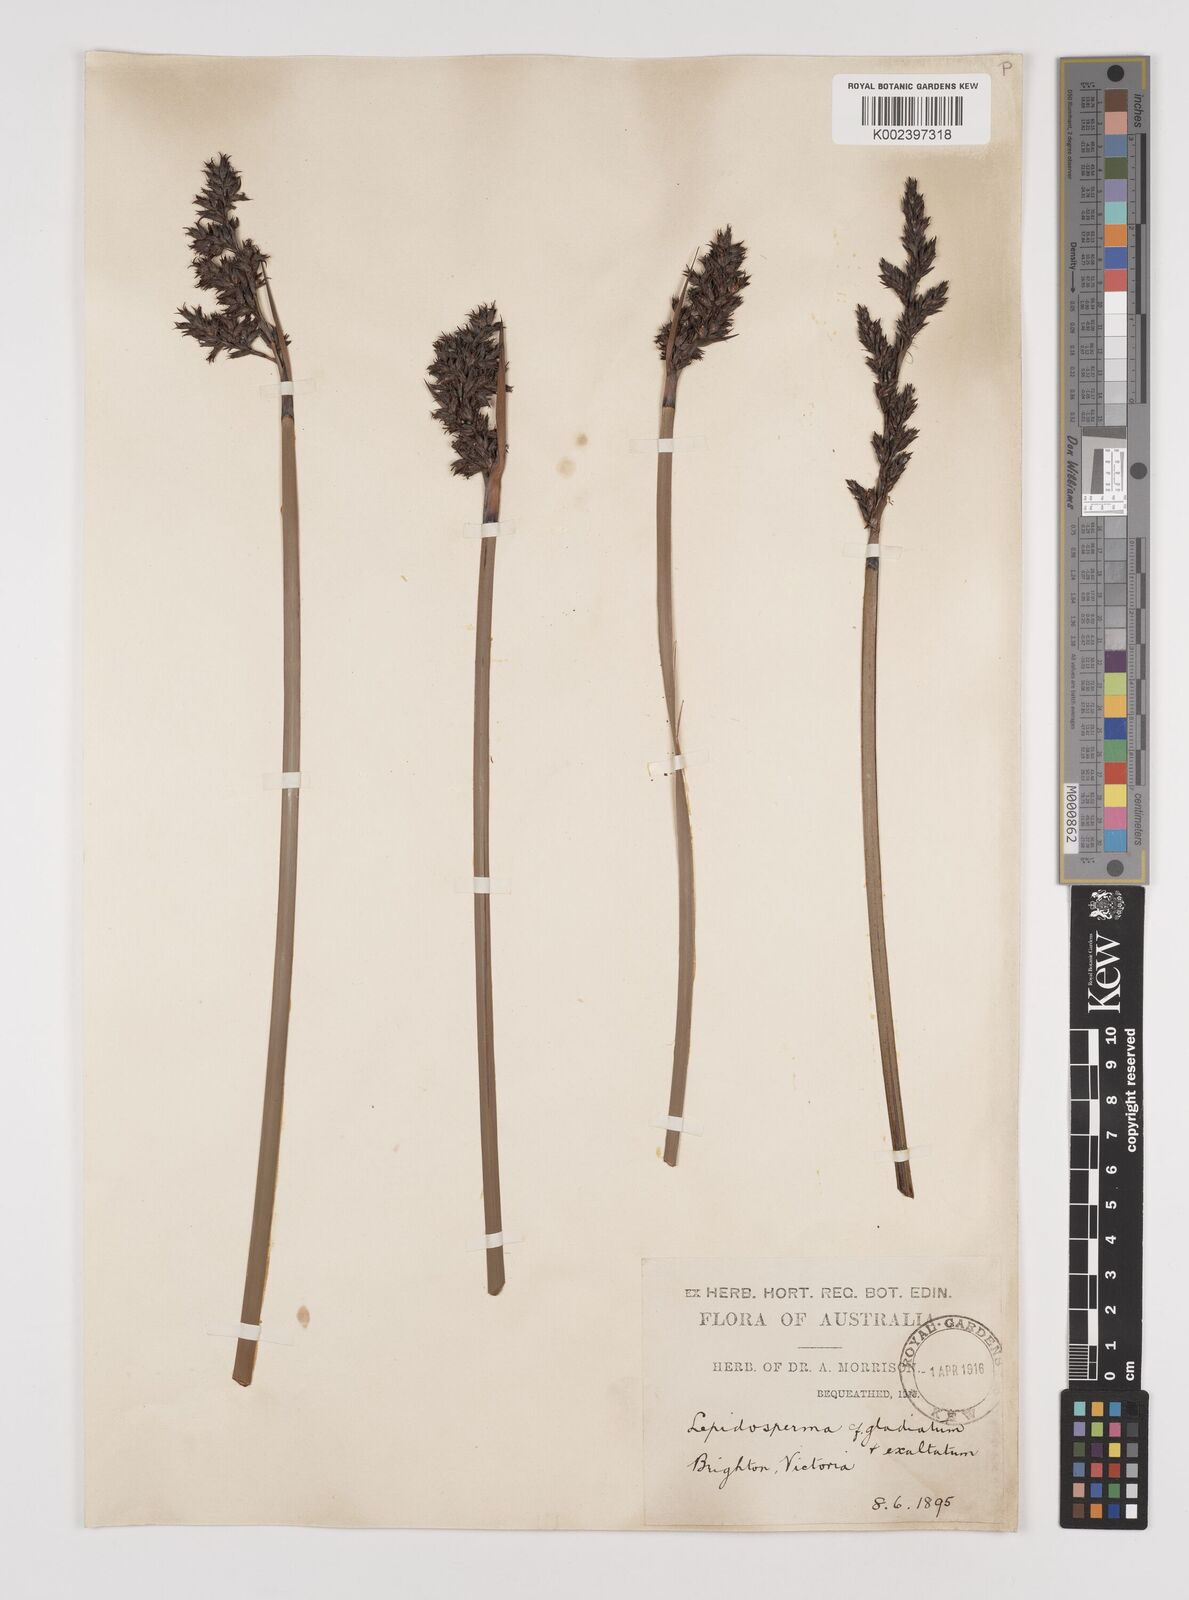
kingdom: Plantae
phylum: Tracheophyta
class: Liliopsida
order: Poales
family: Cyperaceae
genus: Lepidosperma
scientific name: Lepidosperma
